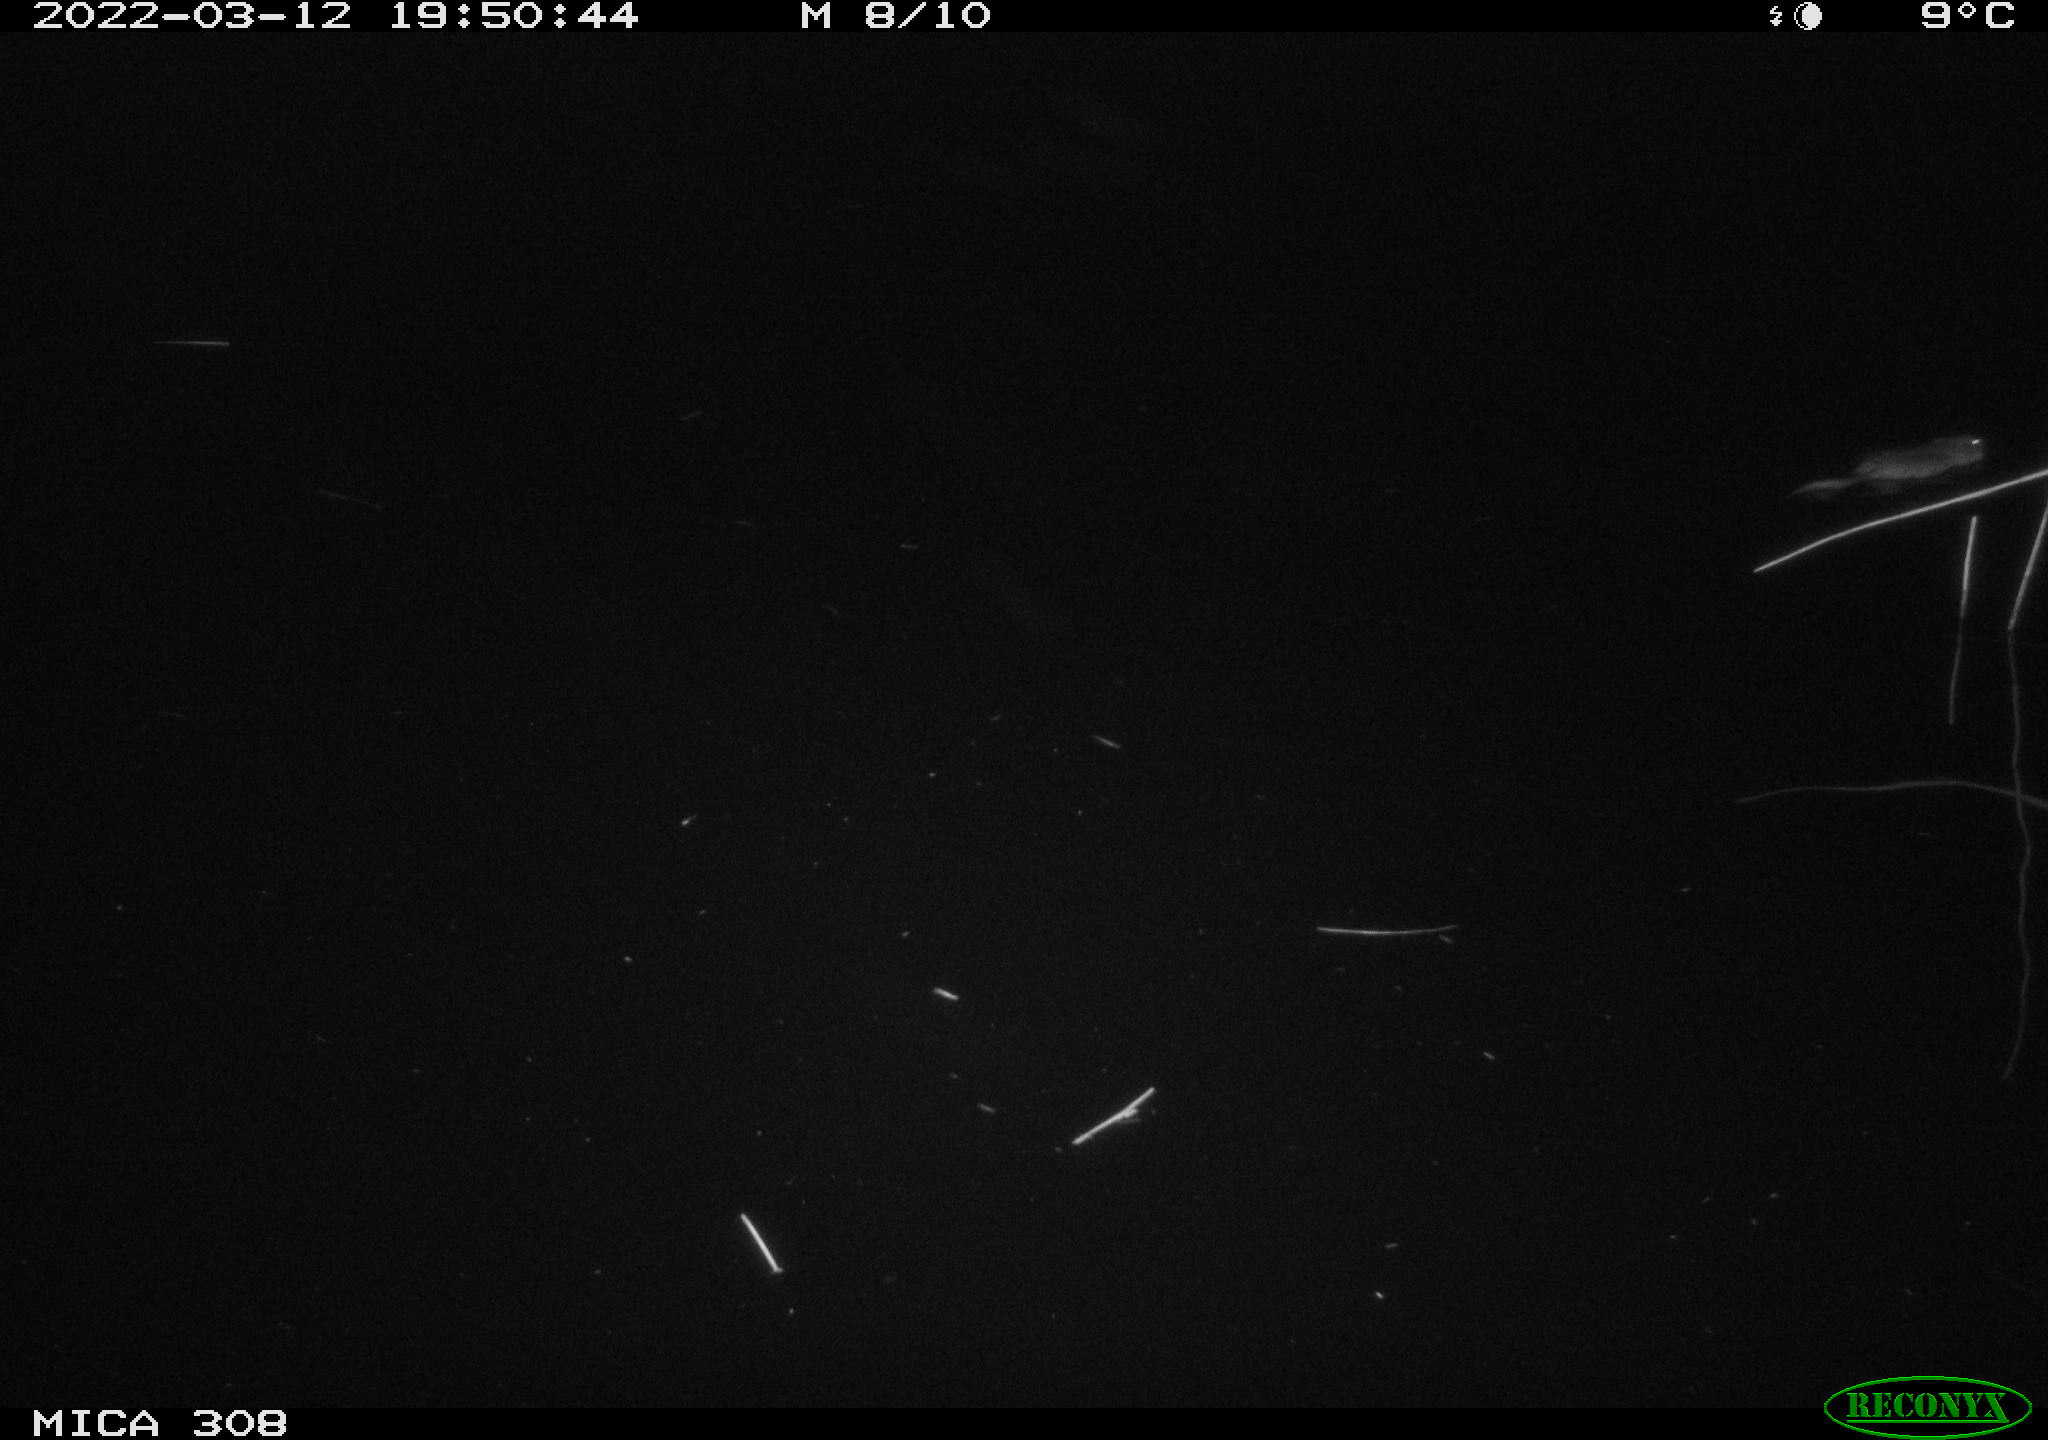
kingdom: Animalia
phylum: Chordata
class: Mammalia
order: Rodentia
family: Cricetidae
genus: Ondatra
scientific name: Ondatra zibethicus
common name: Muskrat
